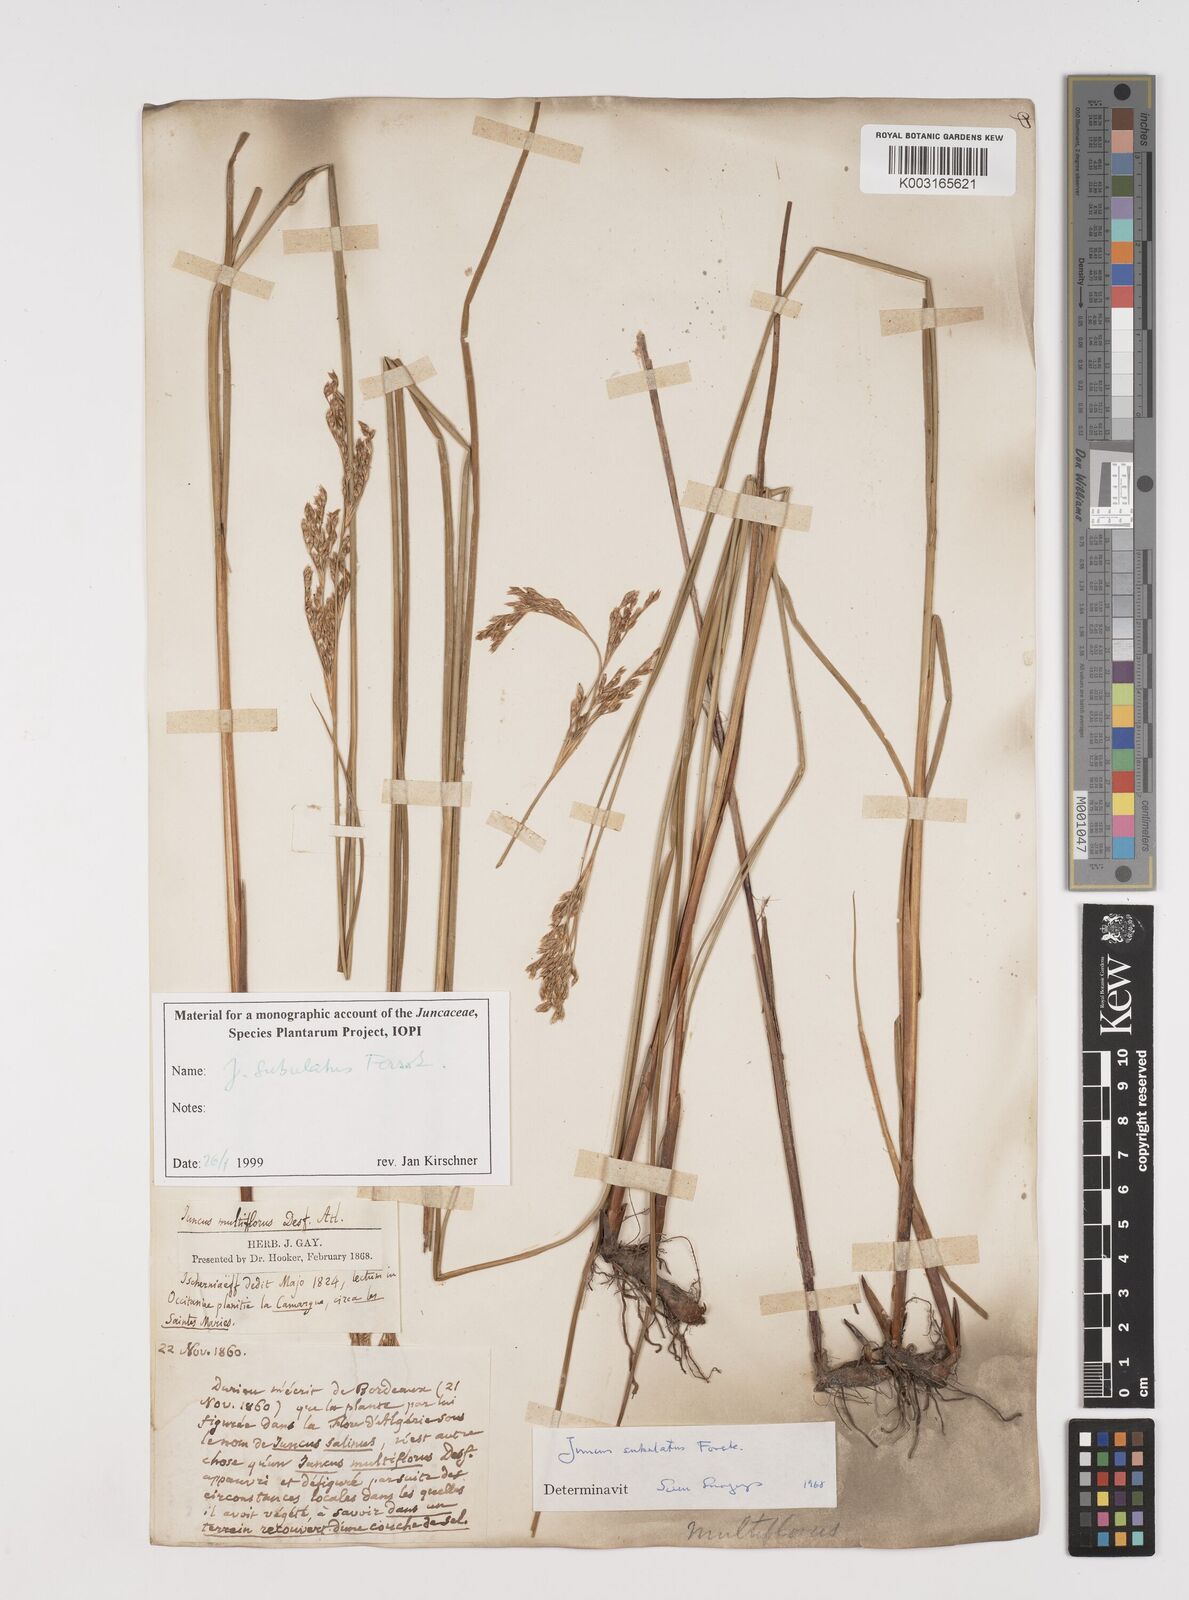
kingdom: Plantae
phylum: Tracheophyta
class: Liliopsida
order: Poales
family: Juncaceae
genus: Juncus
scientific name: Juncus subulatus
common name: Somerset rush
